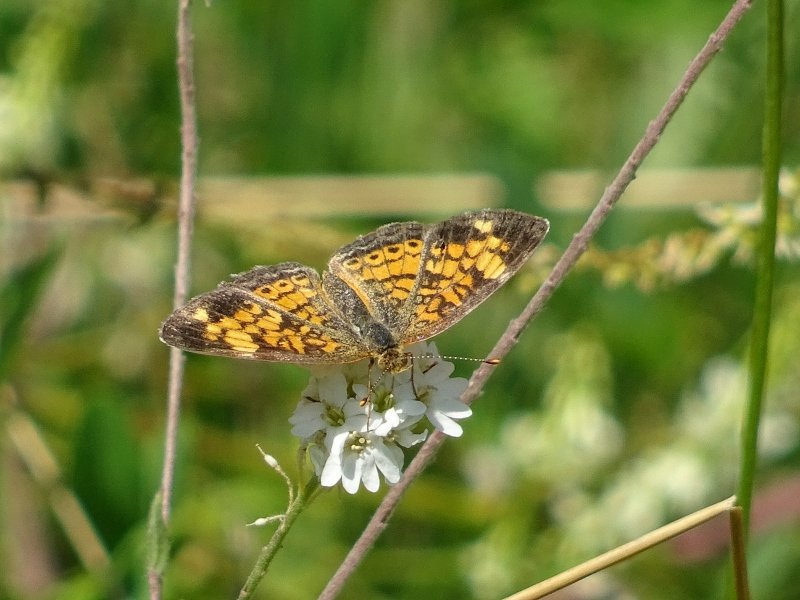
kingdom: Animalia
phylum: Arthropoda
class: Insecta
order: Lepidoptera
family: Nymphalidae
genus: Phyciodes
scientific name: Phyciodes tharos
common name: Northern Crescent
